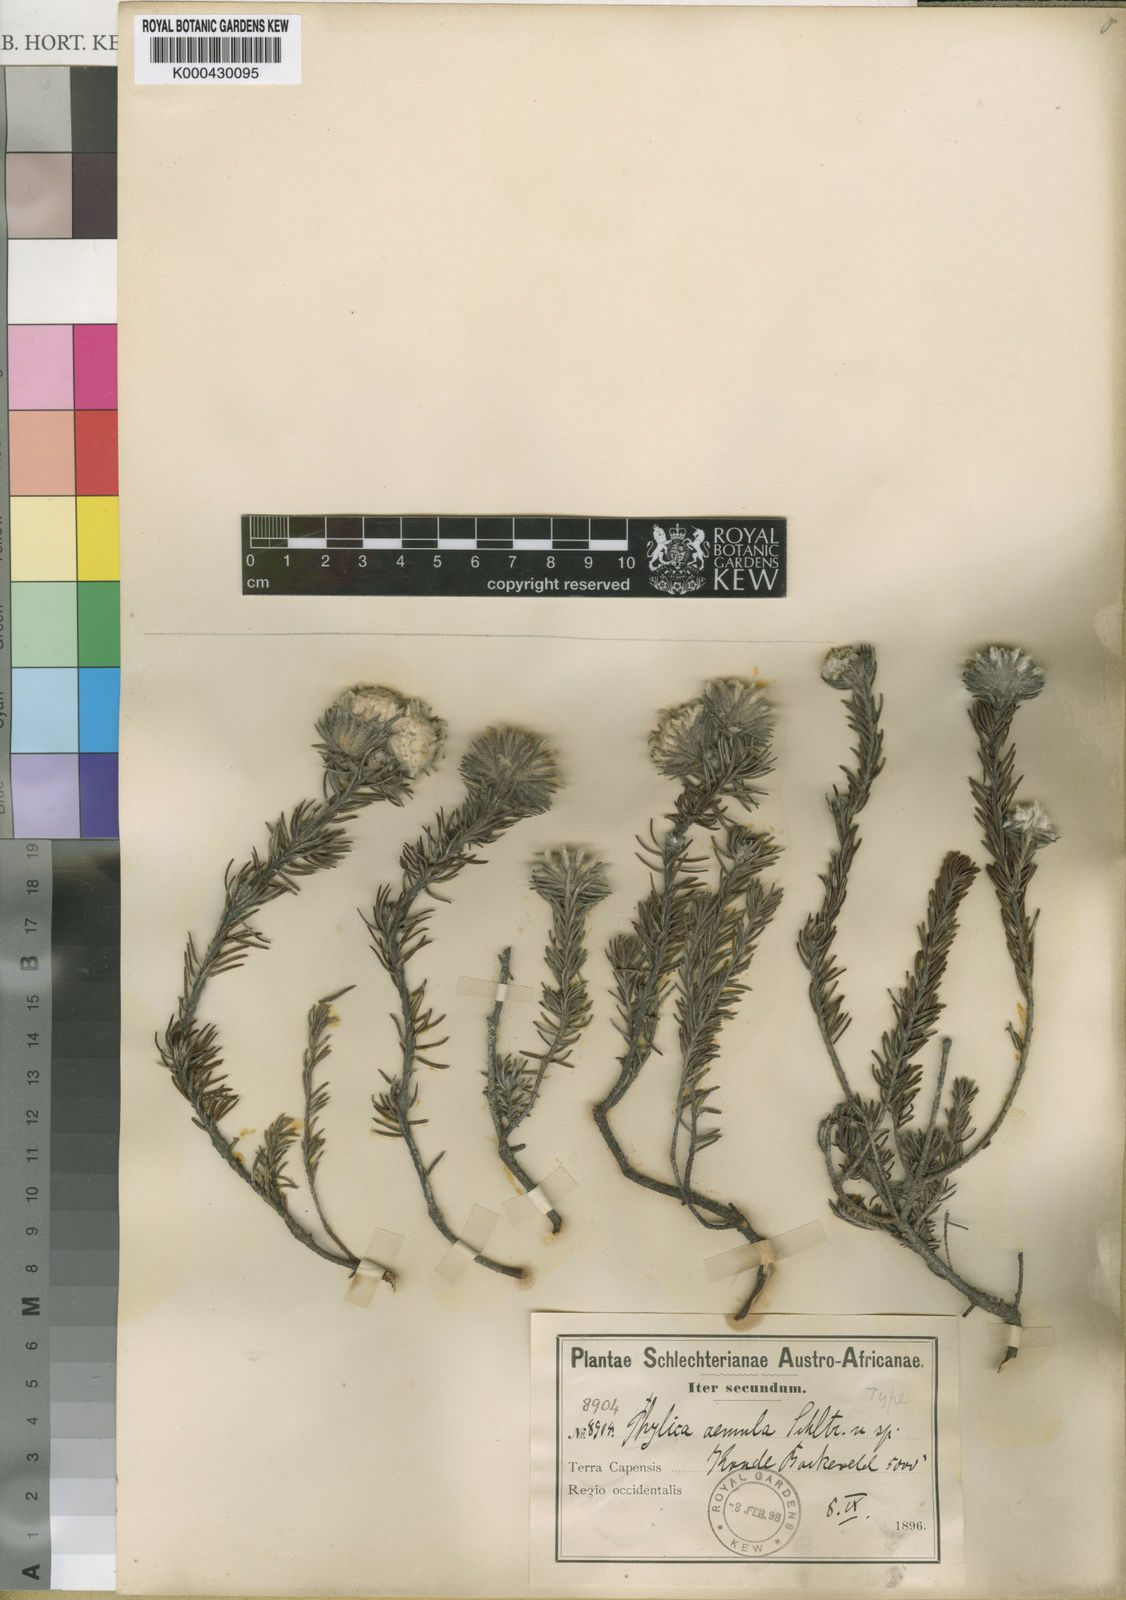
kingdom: Plantae
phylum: Tracheophyta
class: Magnoliopsida
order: Rosales
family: Rhamnaceae
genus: Phylica
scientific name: Phylica aemula
